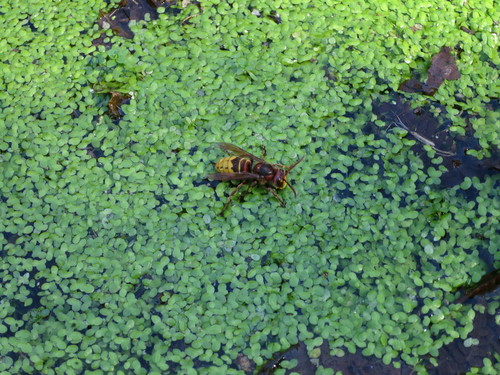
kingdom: Animalia
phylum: Arthropoda
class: Insecta
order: Hymenoptera
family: Vespidae
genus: Vespa
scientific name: Vespa crabro
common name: Hornet
